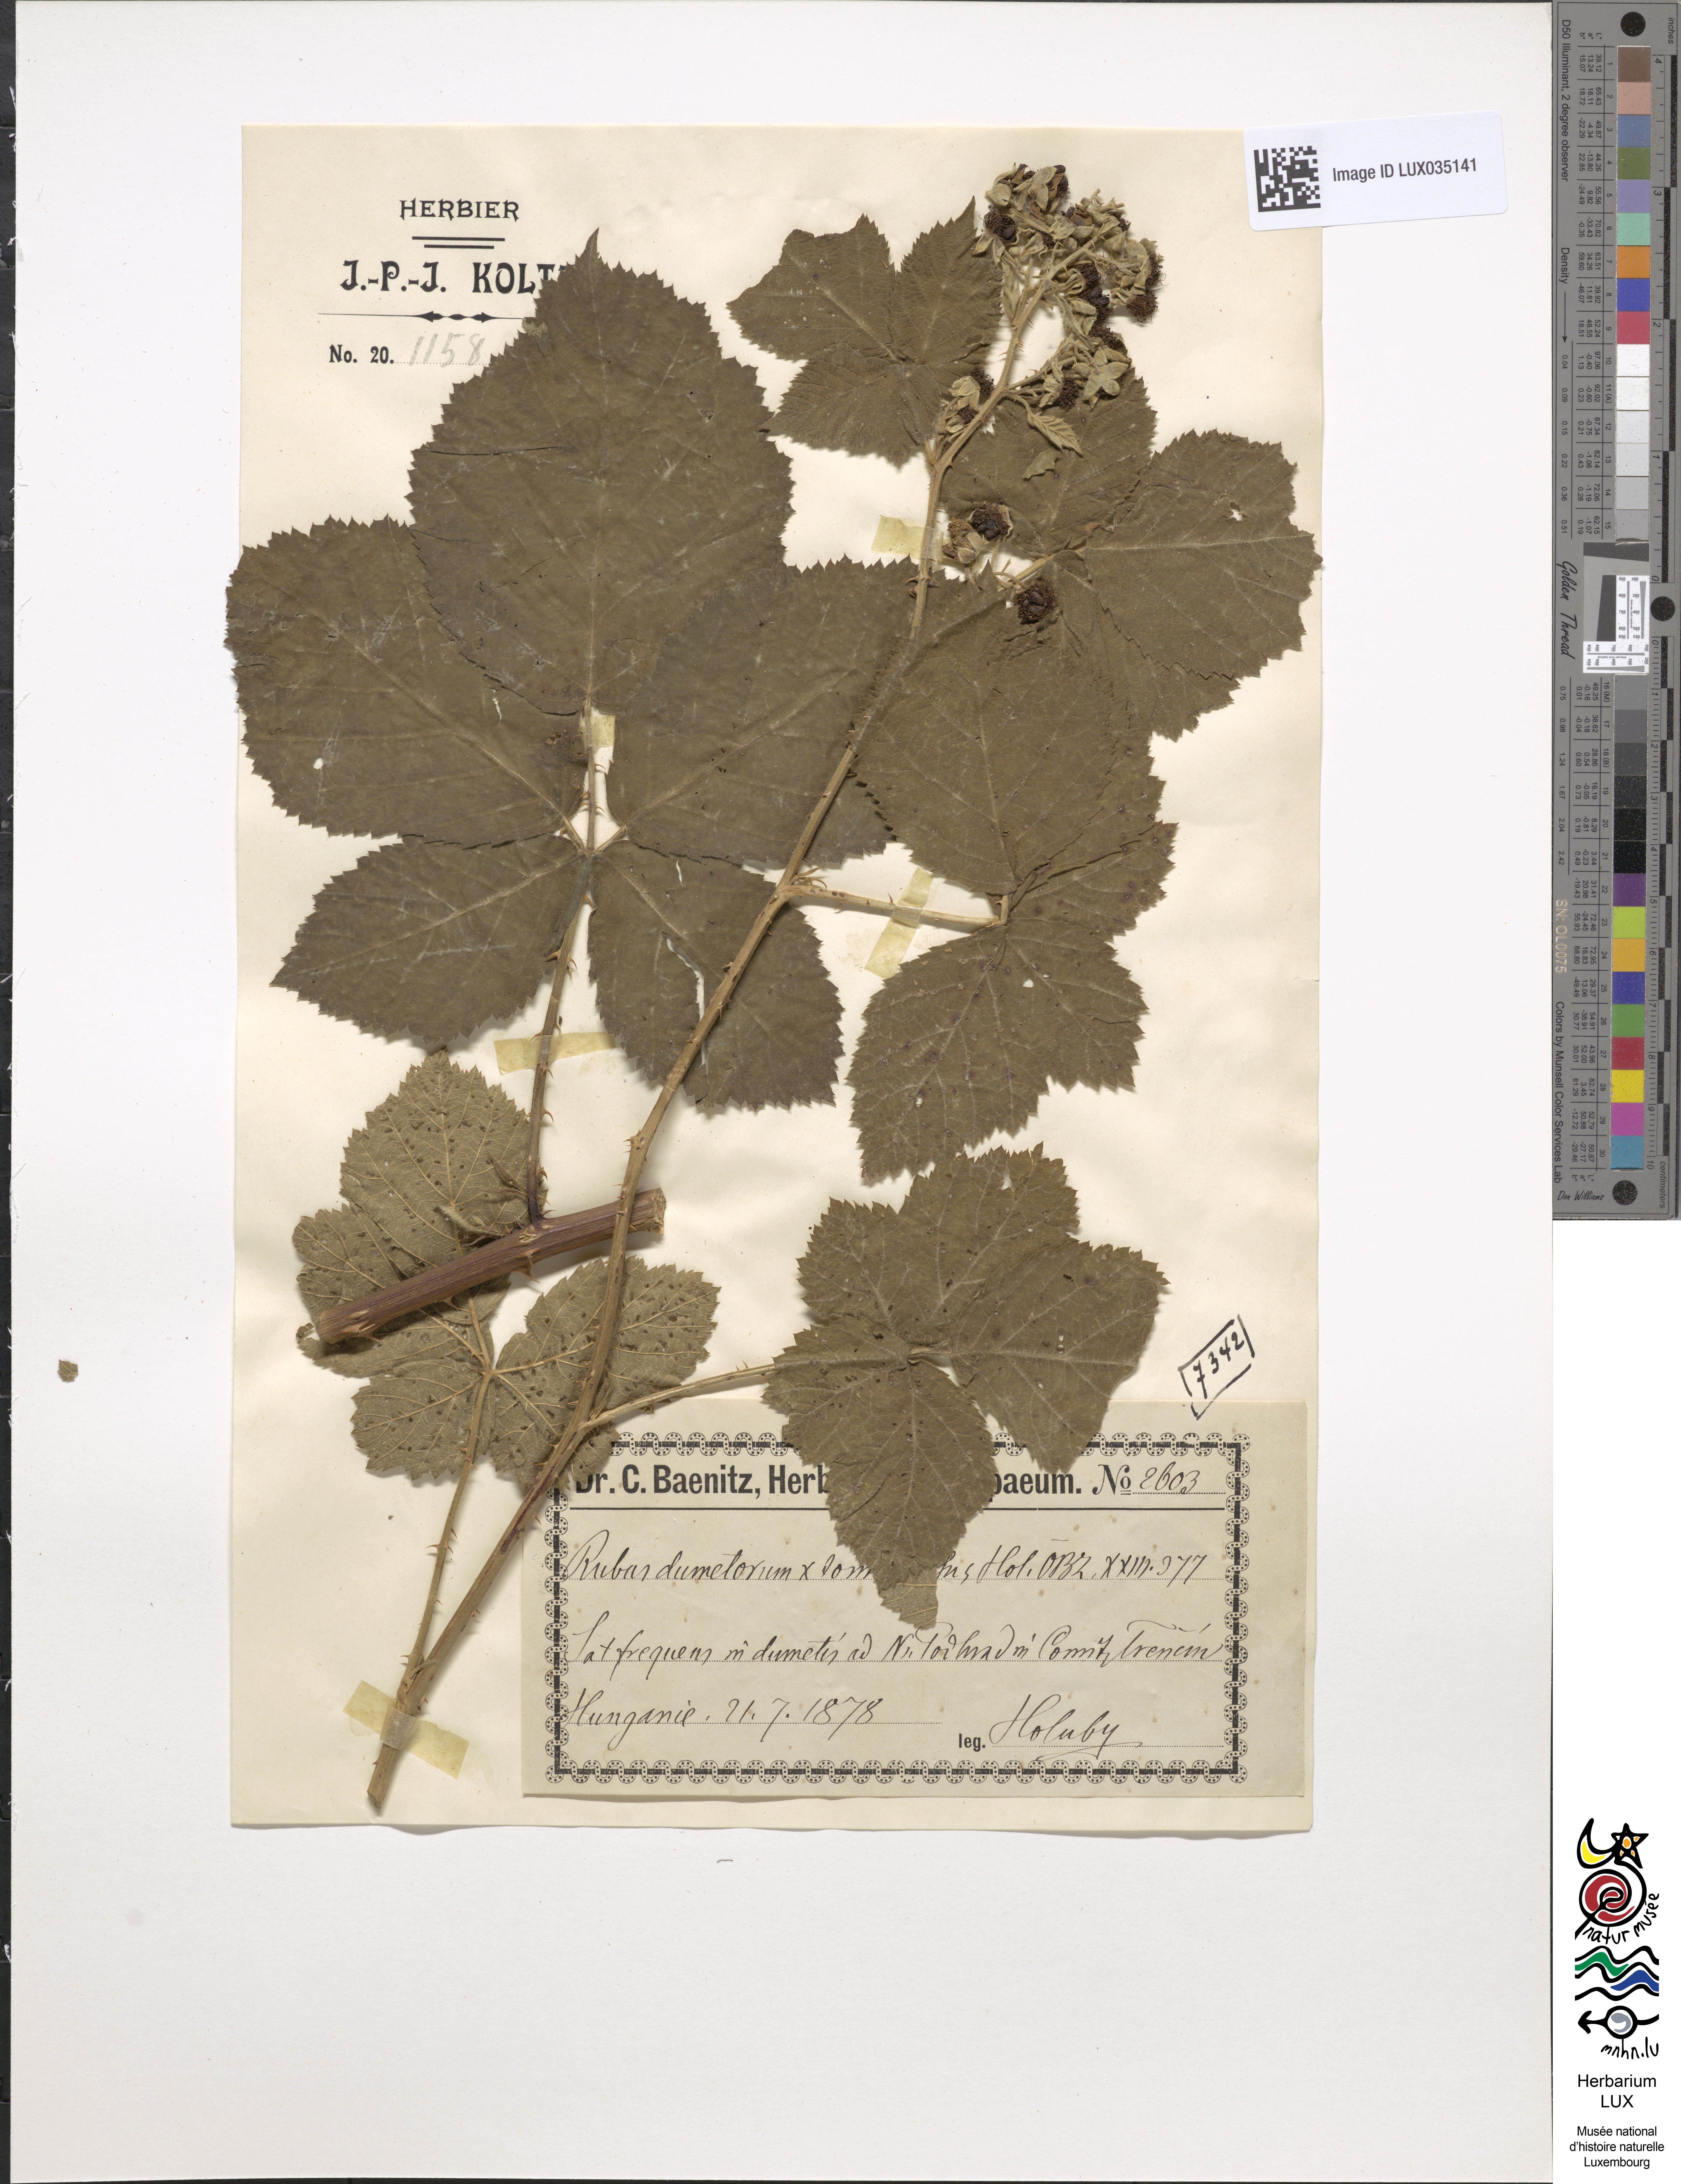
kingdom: Plantae
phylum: Tracheophyta
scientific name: Tracheophyta
